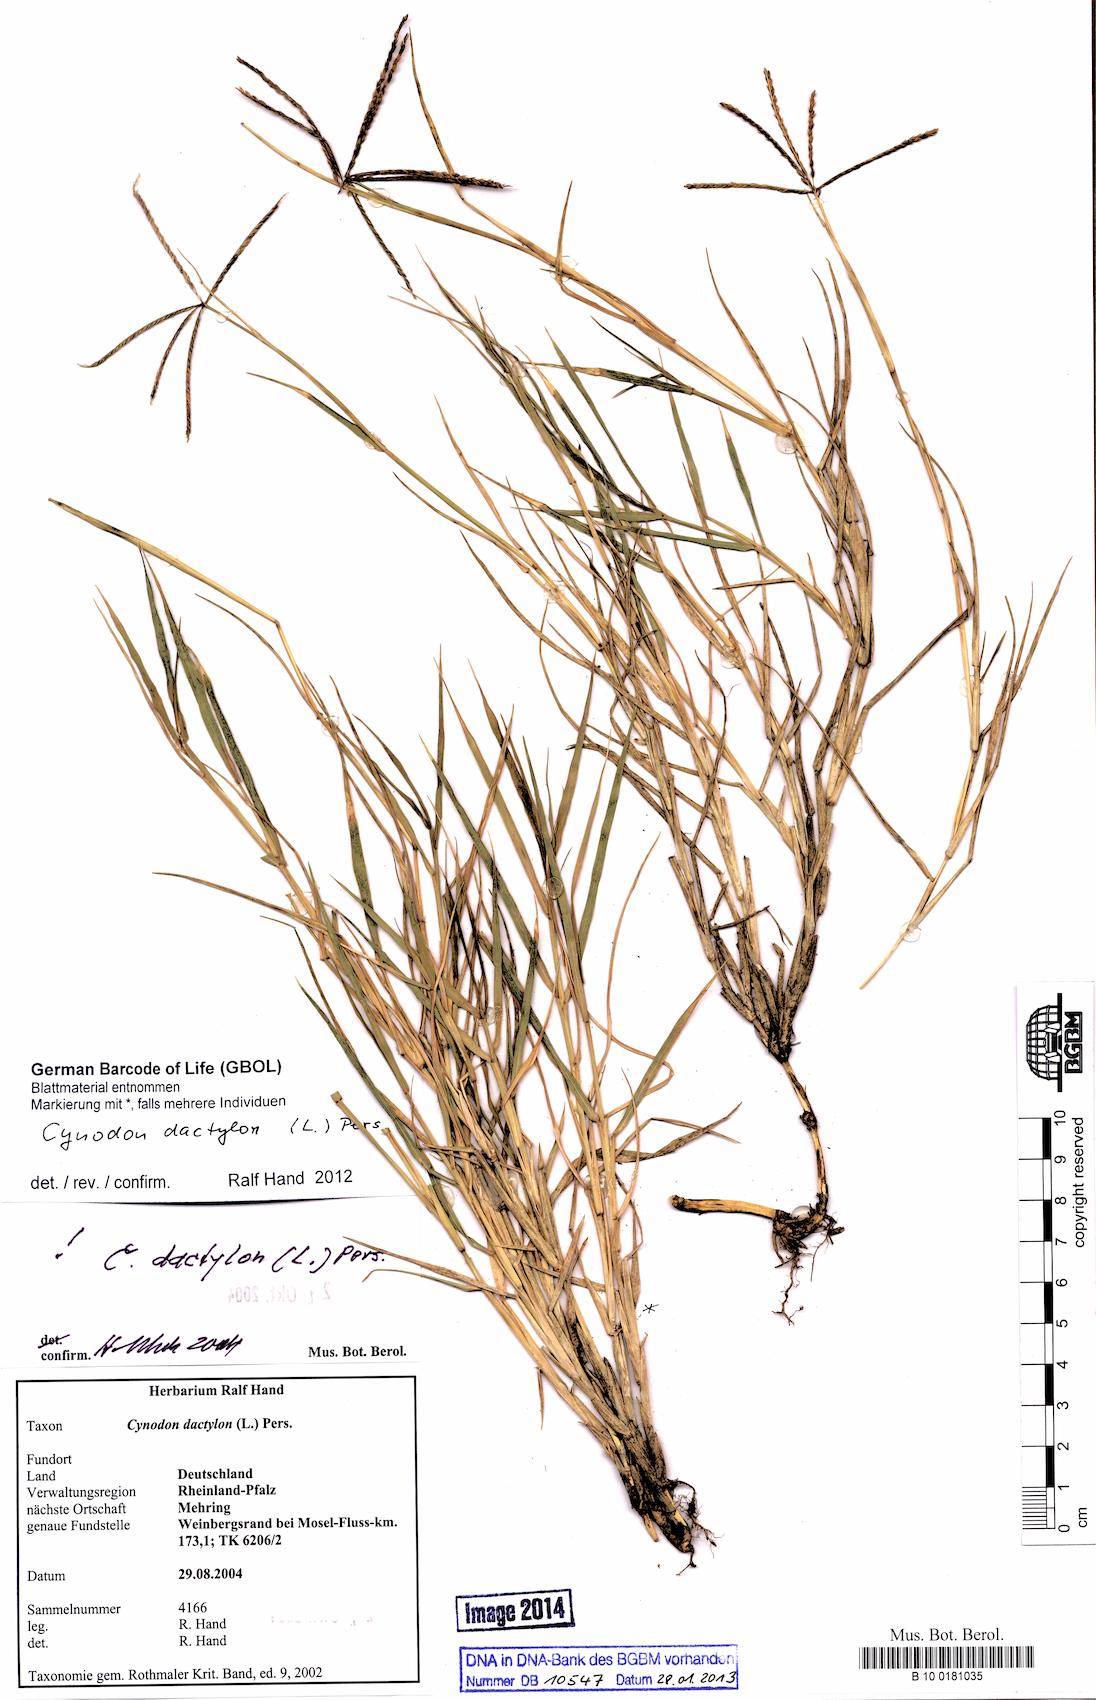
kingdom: Plantae
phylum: Tracheophyta
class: Liliopsida
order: Poales
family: Poaceae
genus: Cynodon
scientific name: Cynodon dactylon
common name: Bermuda grass
